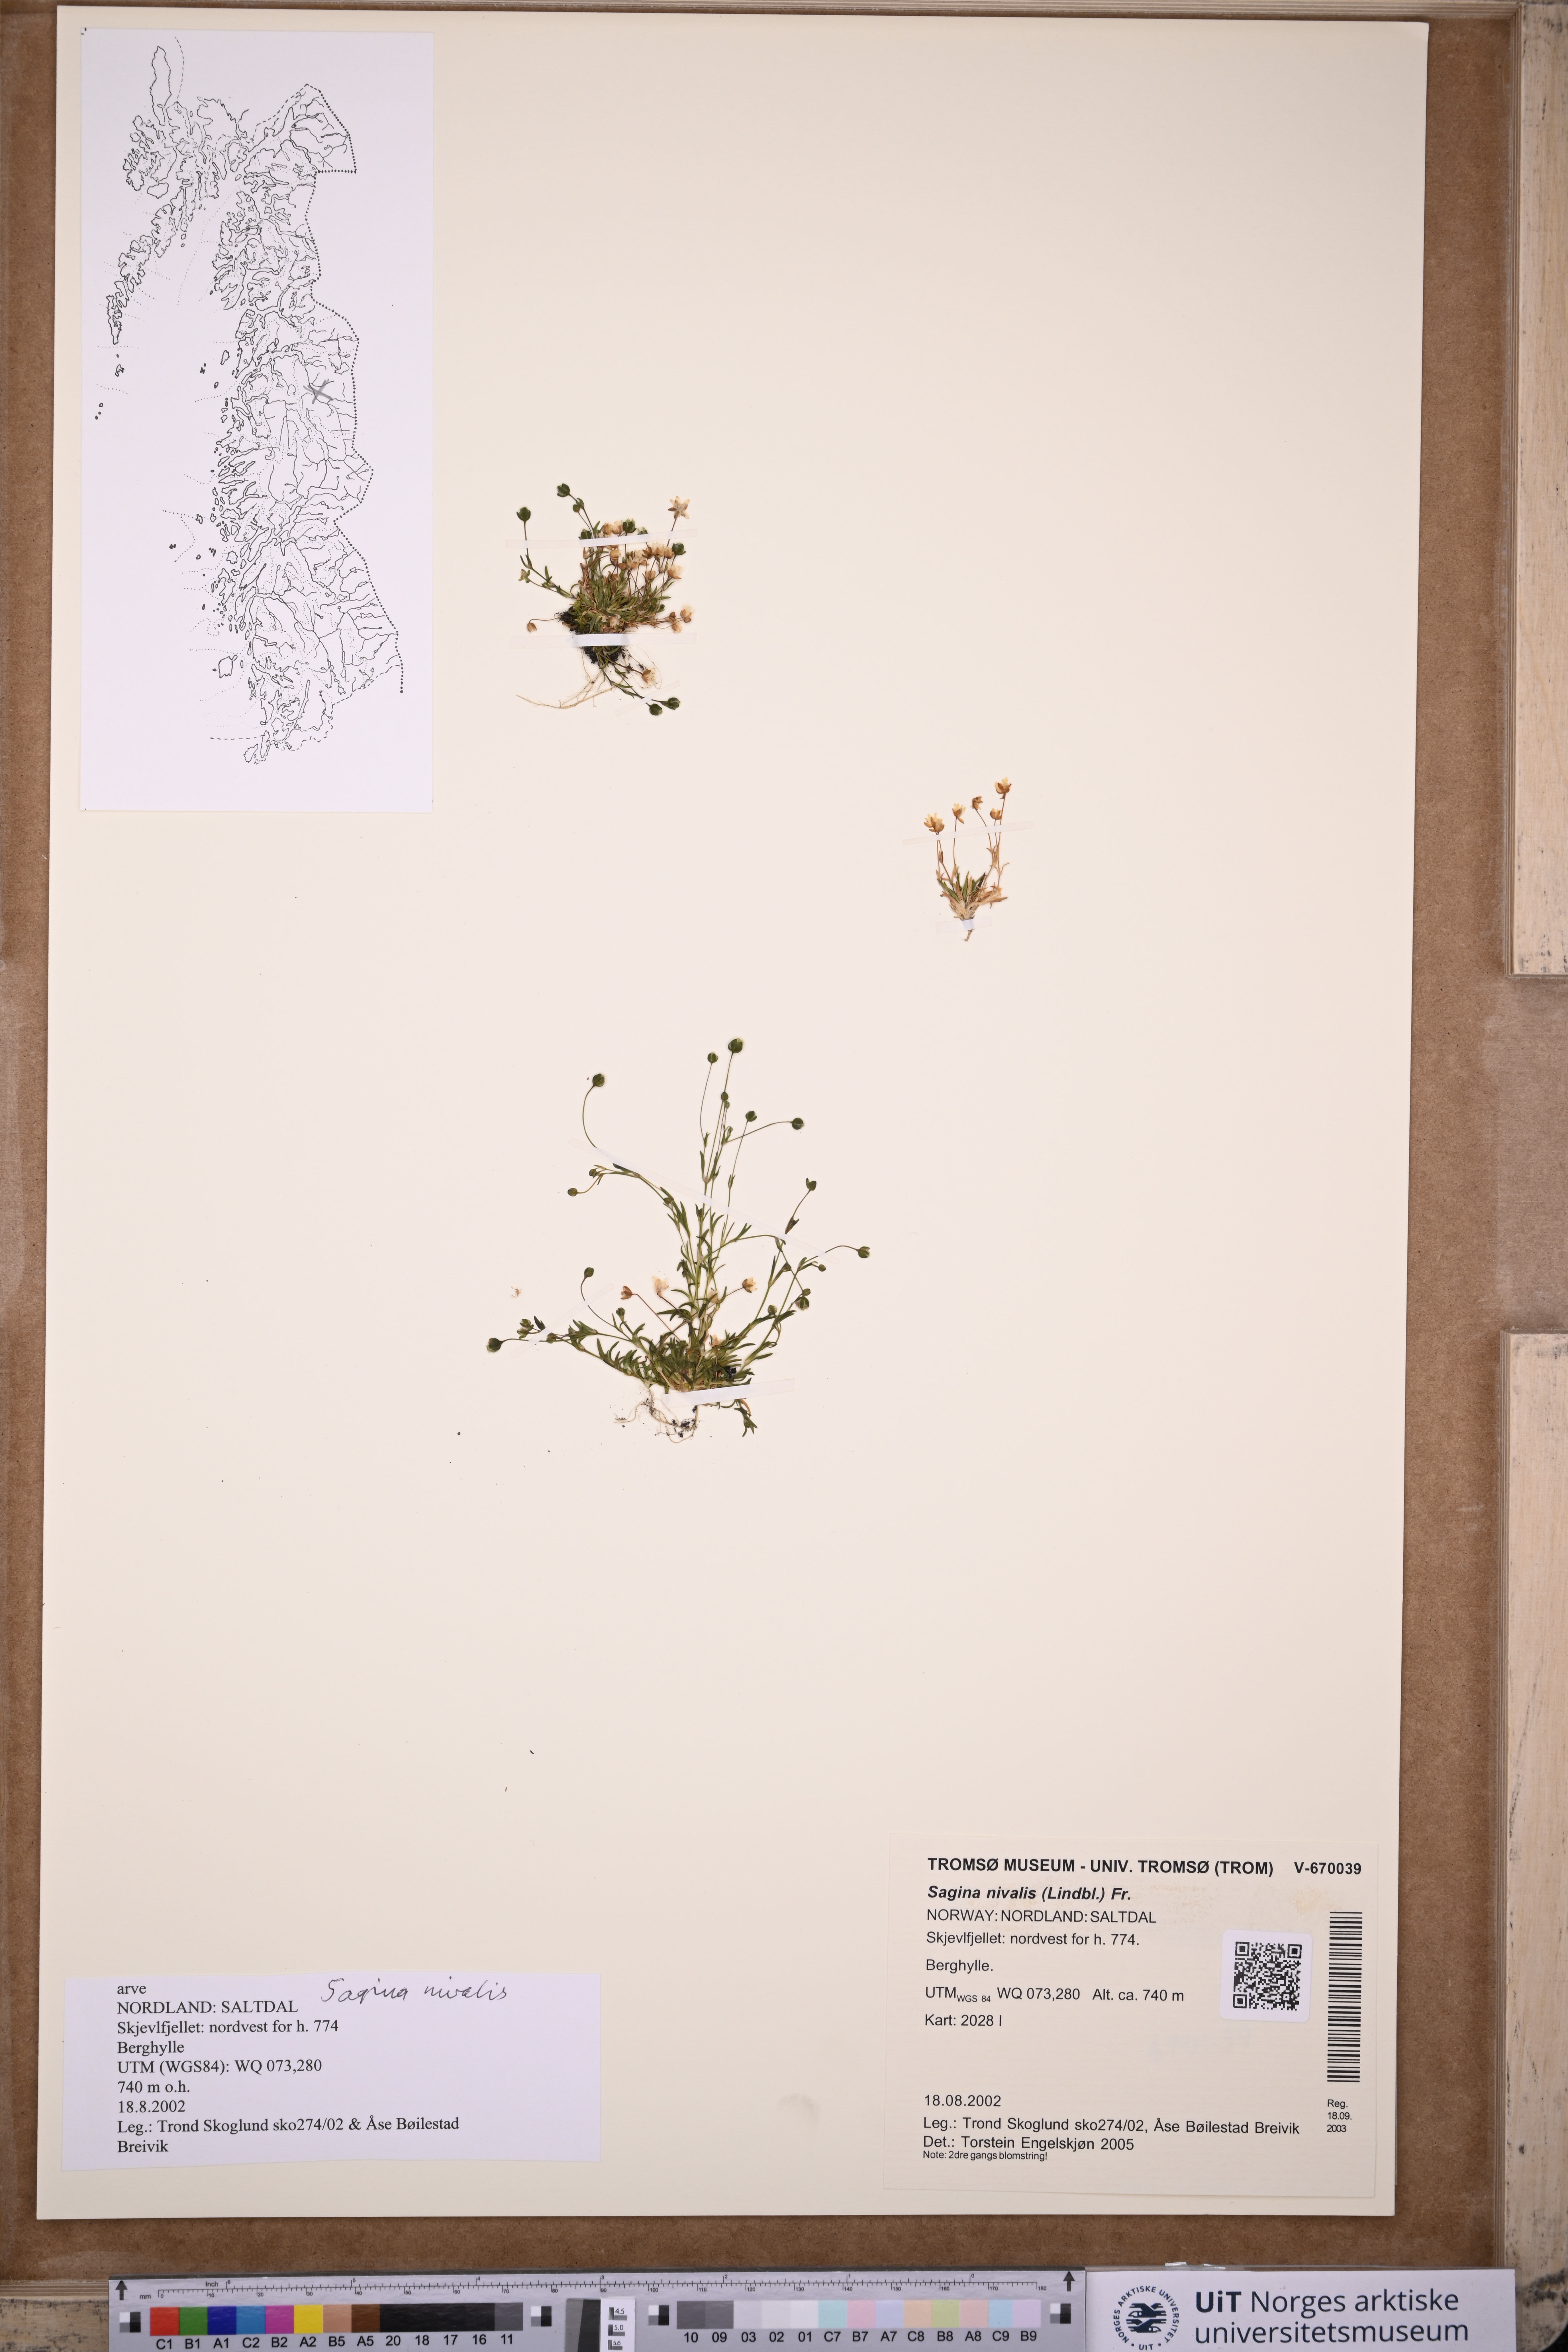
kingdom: Plantae
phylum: Tracheophyta
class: Magnoliopsida
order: Caryophyllales
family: Caryophyllaceae
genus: Sagina
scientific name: Sagina nivalis
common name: Snow pearlwort
